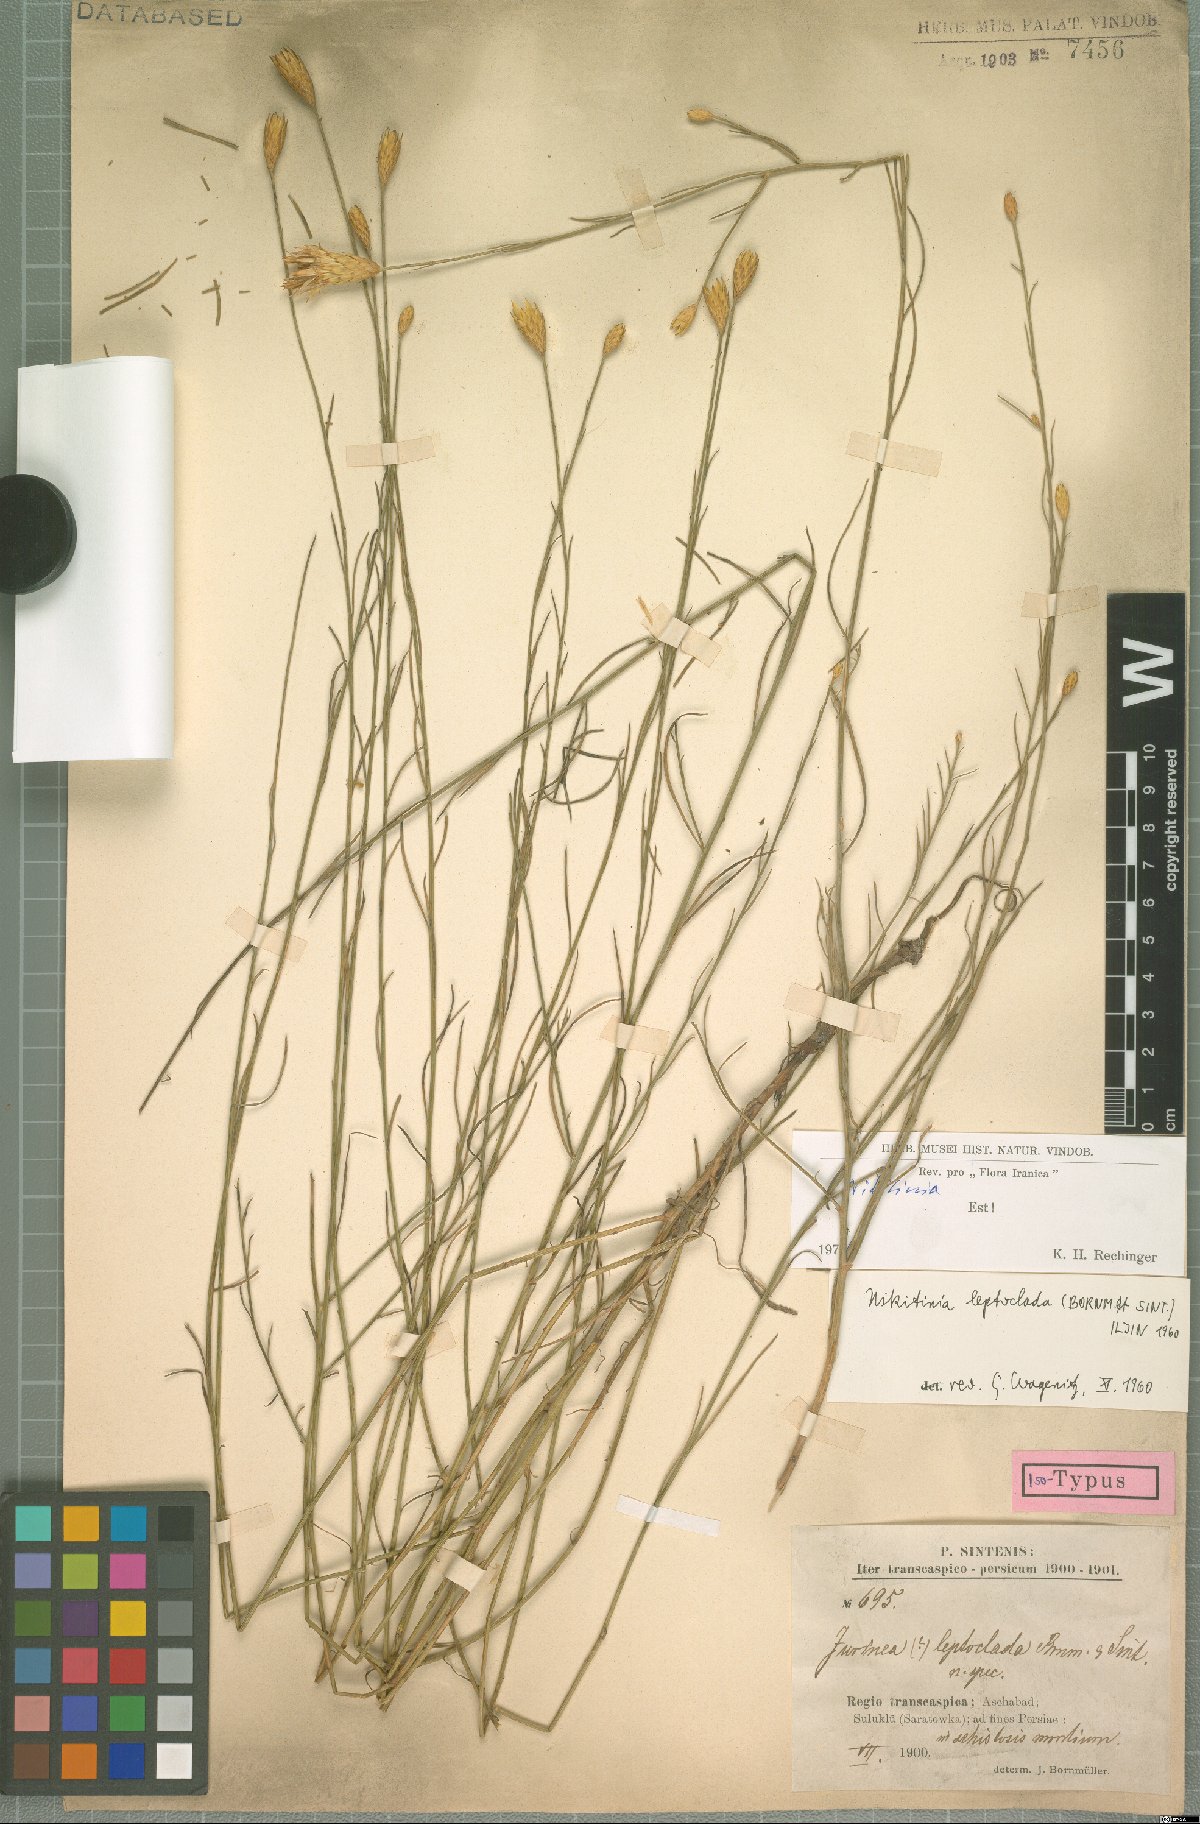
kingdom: Plantae
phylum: Tracheophyta
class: Magnoliopsida
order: Asterales
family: Asteraceae
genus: Klasea
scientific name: Klasea leptoclada
